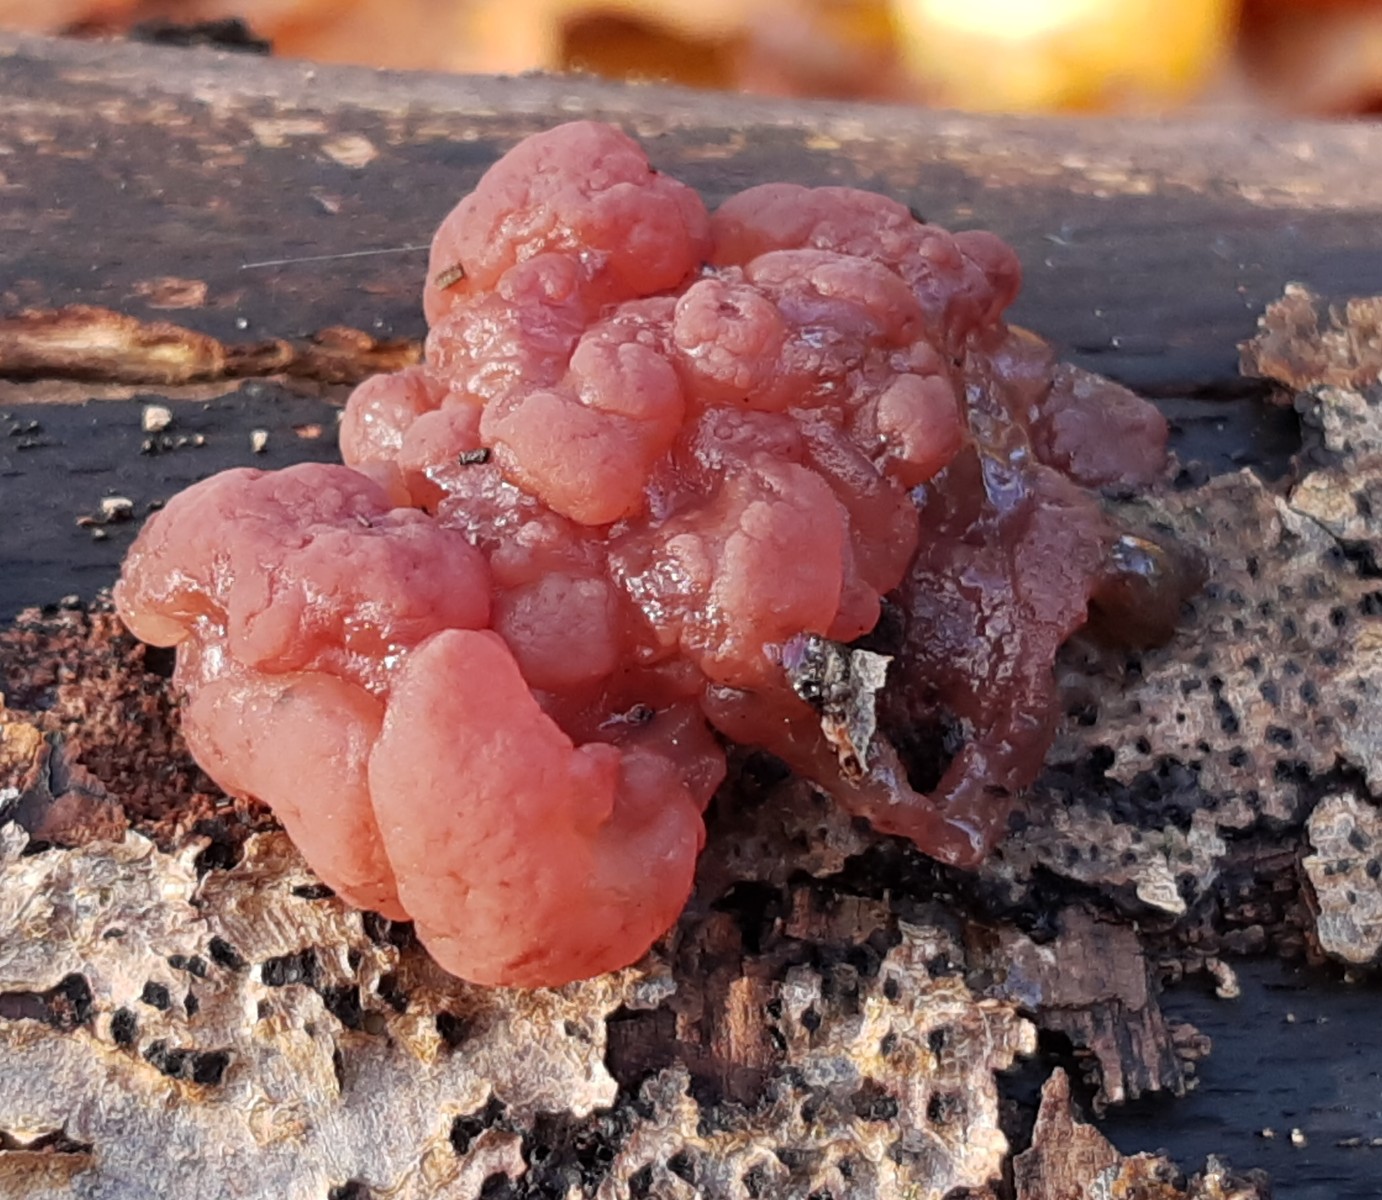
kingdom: Fungi
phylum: Ascomycota
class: Leotiomycetes
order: Helotiales
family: Gelatinodiscaceae
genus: Ascotremella
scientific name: Ascotremella faginea
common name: hjerne-bævreskive
